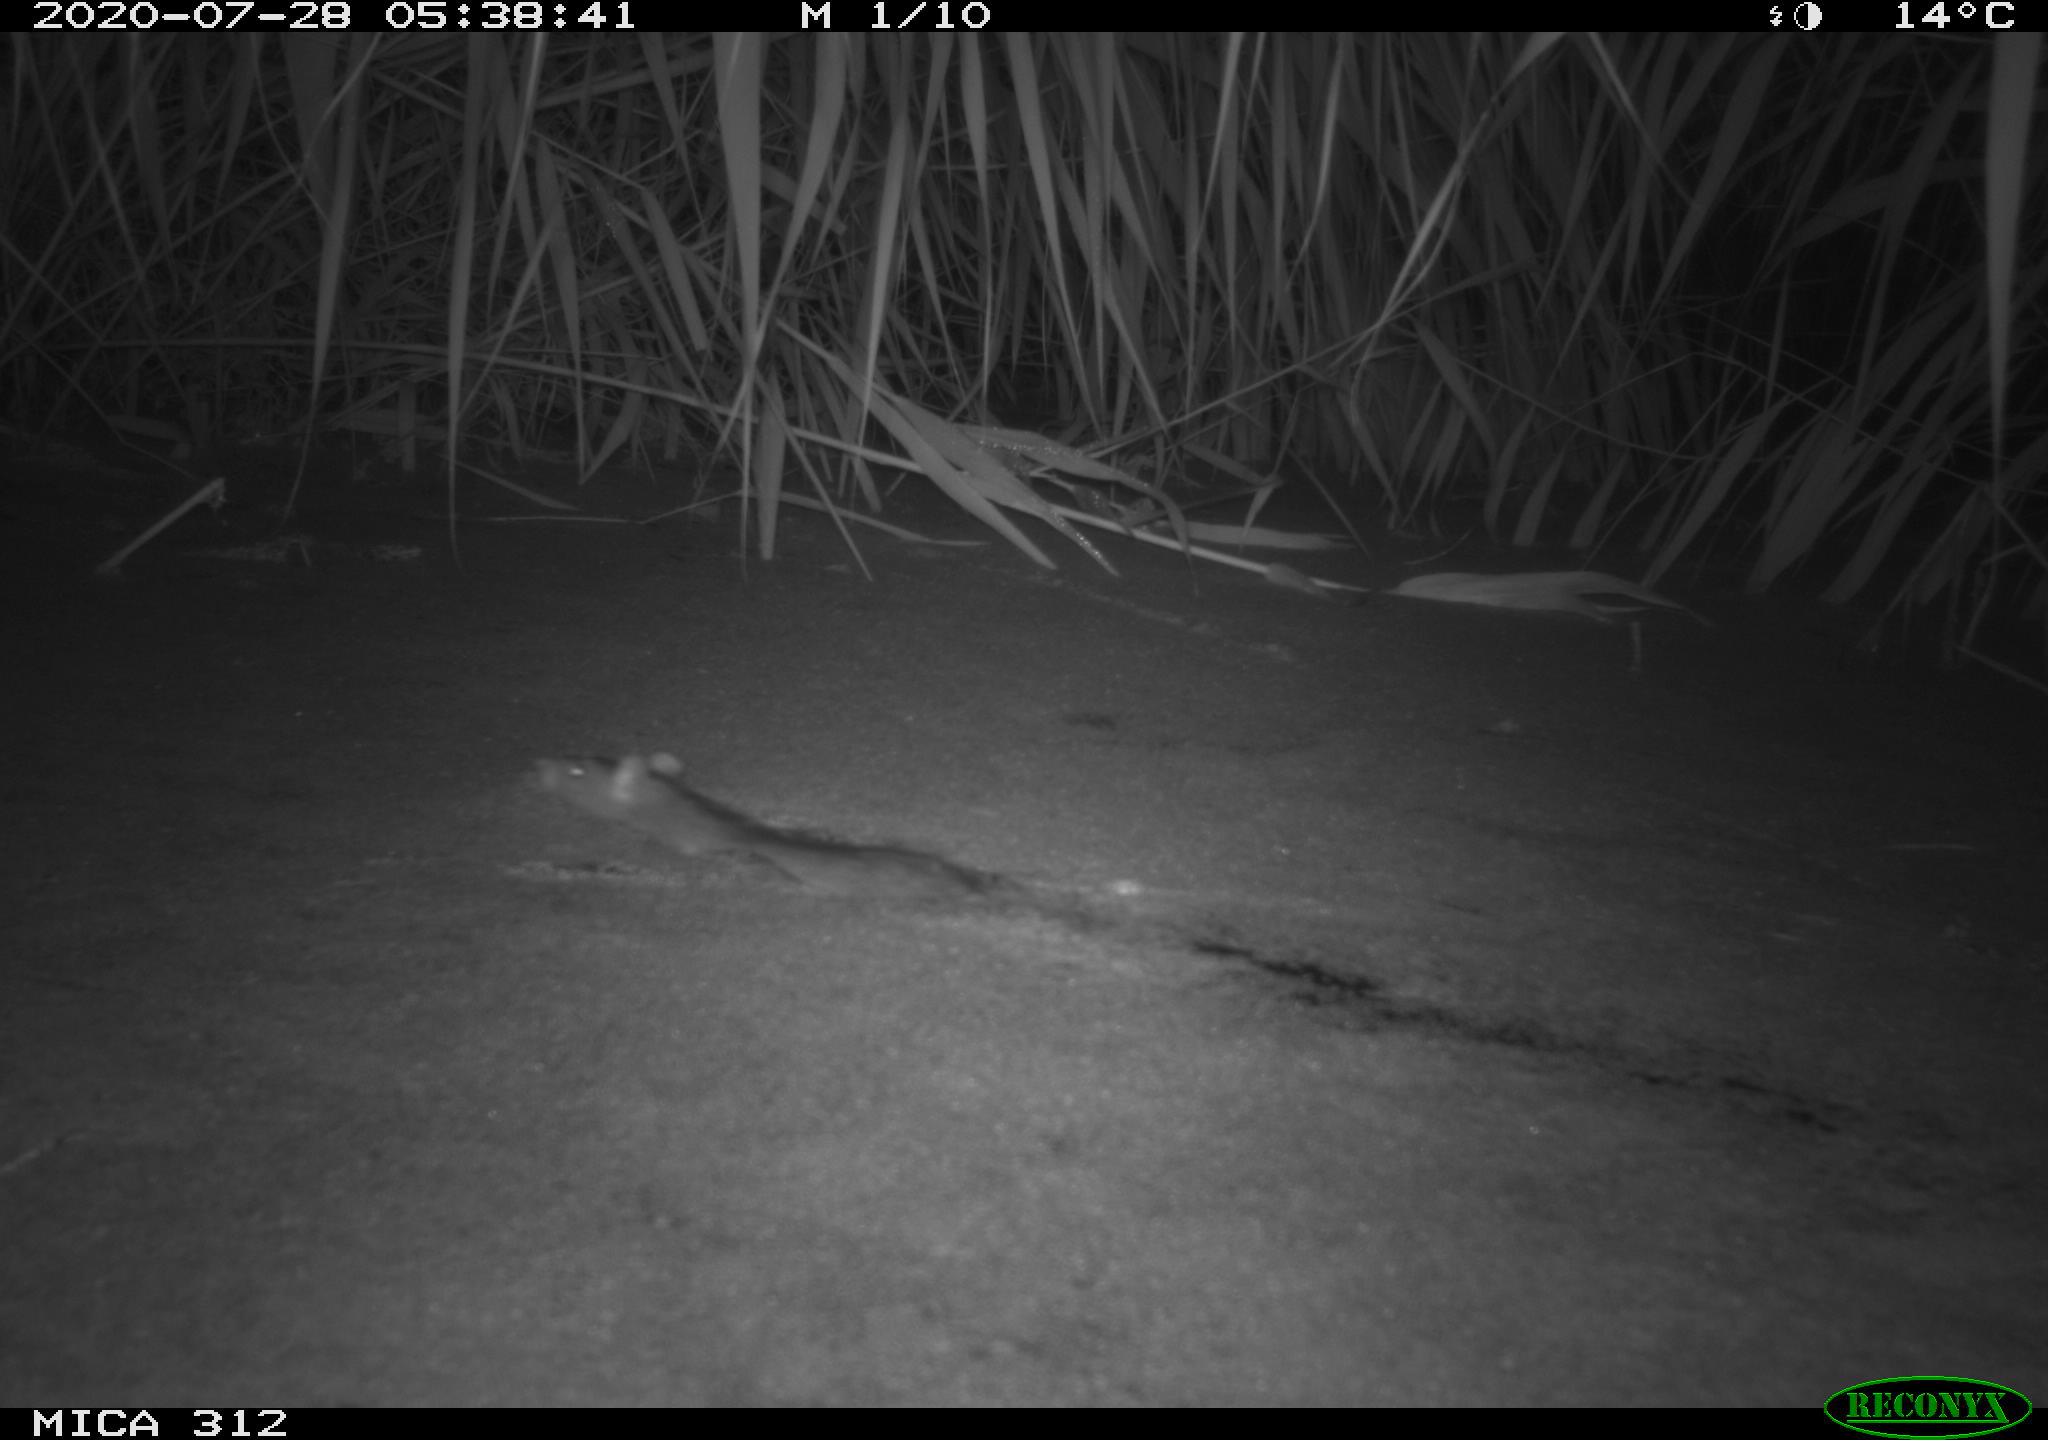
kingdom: Animalia
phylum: Chordata
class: Mammalia
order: Rodentia
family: Muridae
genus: Rattus
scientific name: Rattus norvegicus
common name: Brown rat
